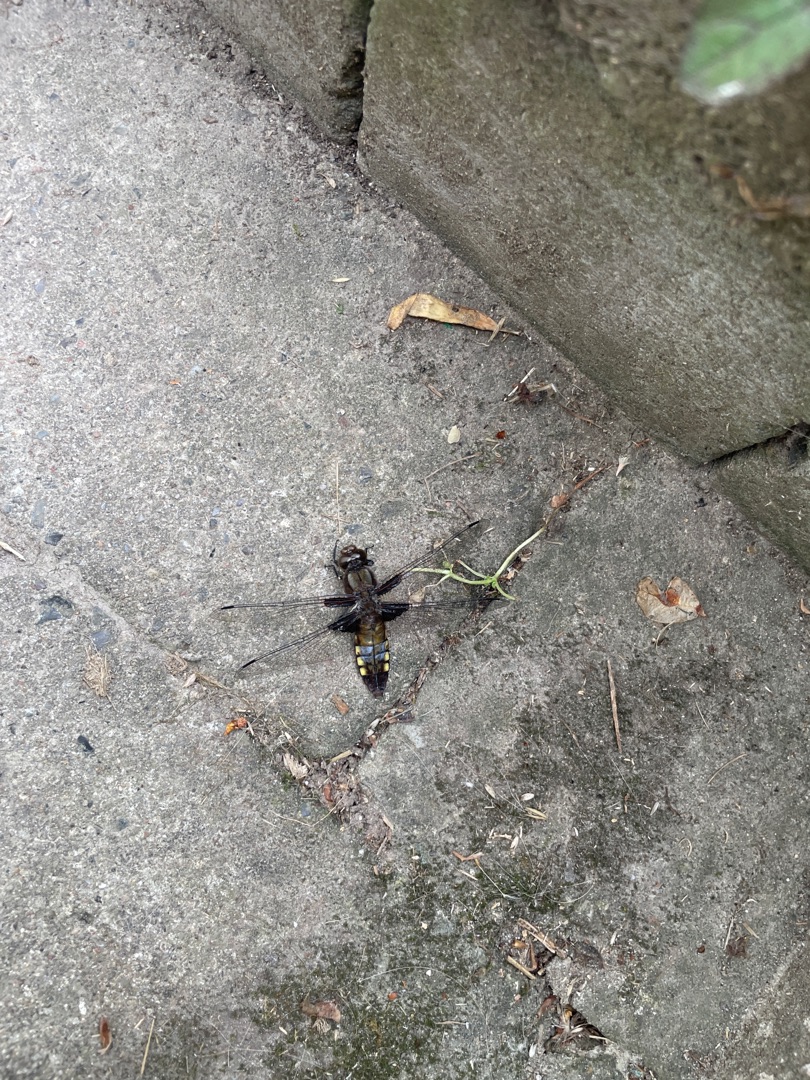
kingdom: Animalia
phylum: Arthropoda
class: Insecta
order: Odonata
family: Libellulidae
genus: Libellula
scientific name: Libellula depressa
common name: Blå libel
